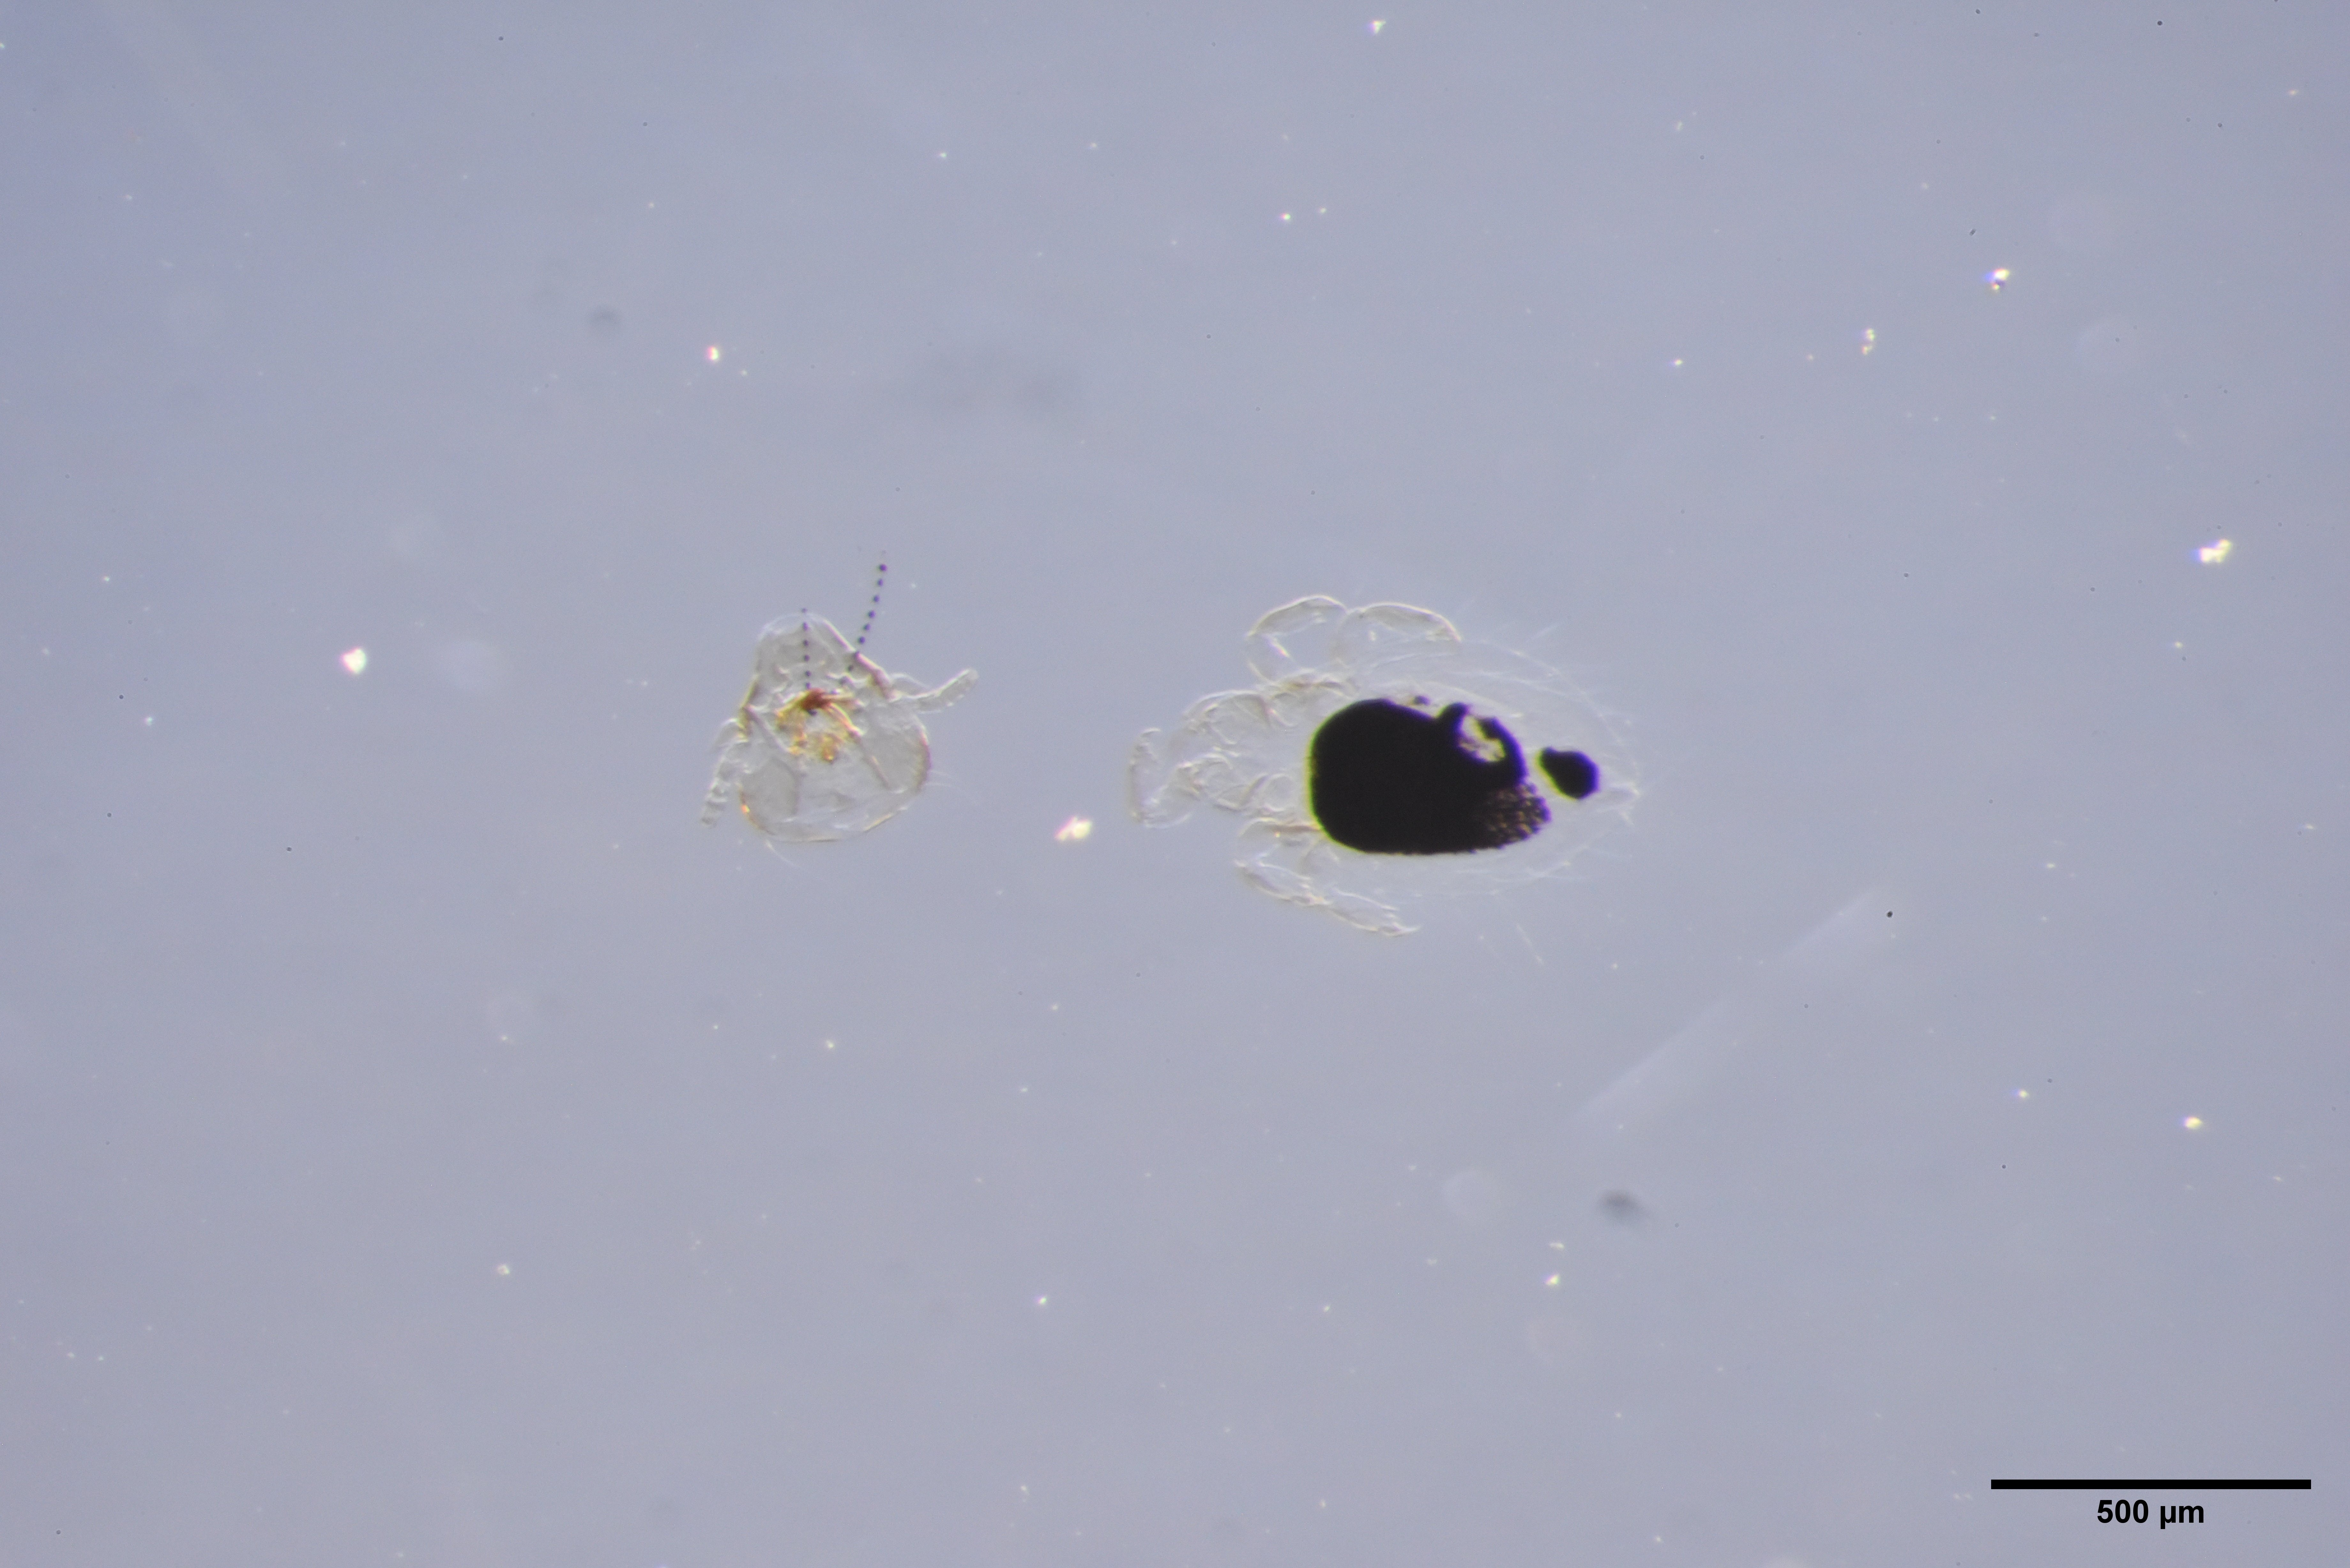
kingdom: Animalia
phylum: Arthropoda
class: Insecta
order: Psocodea
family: Philopteridae
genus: Penenirmus
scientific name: Penenirmus
